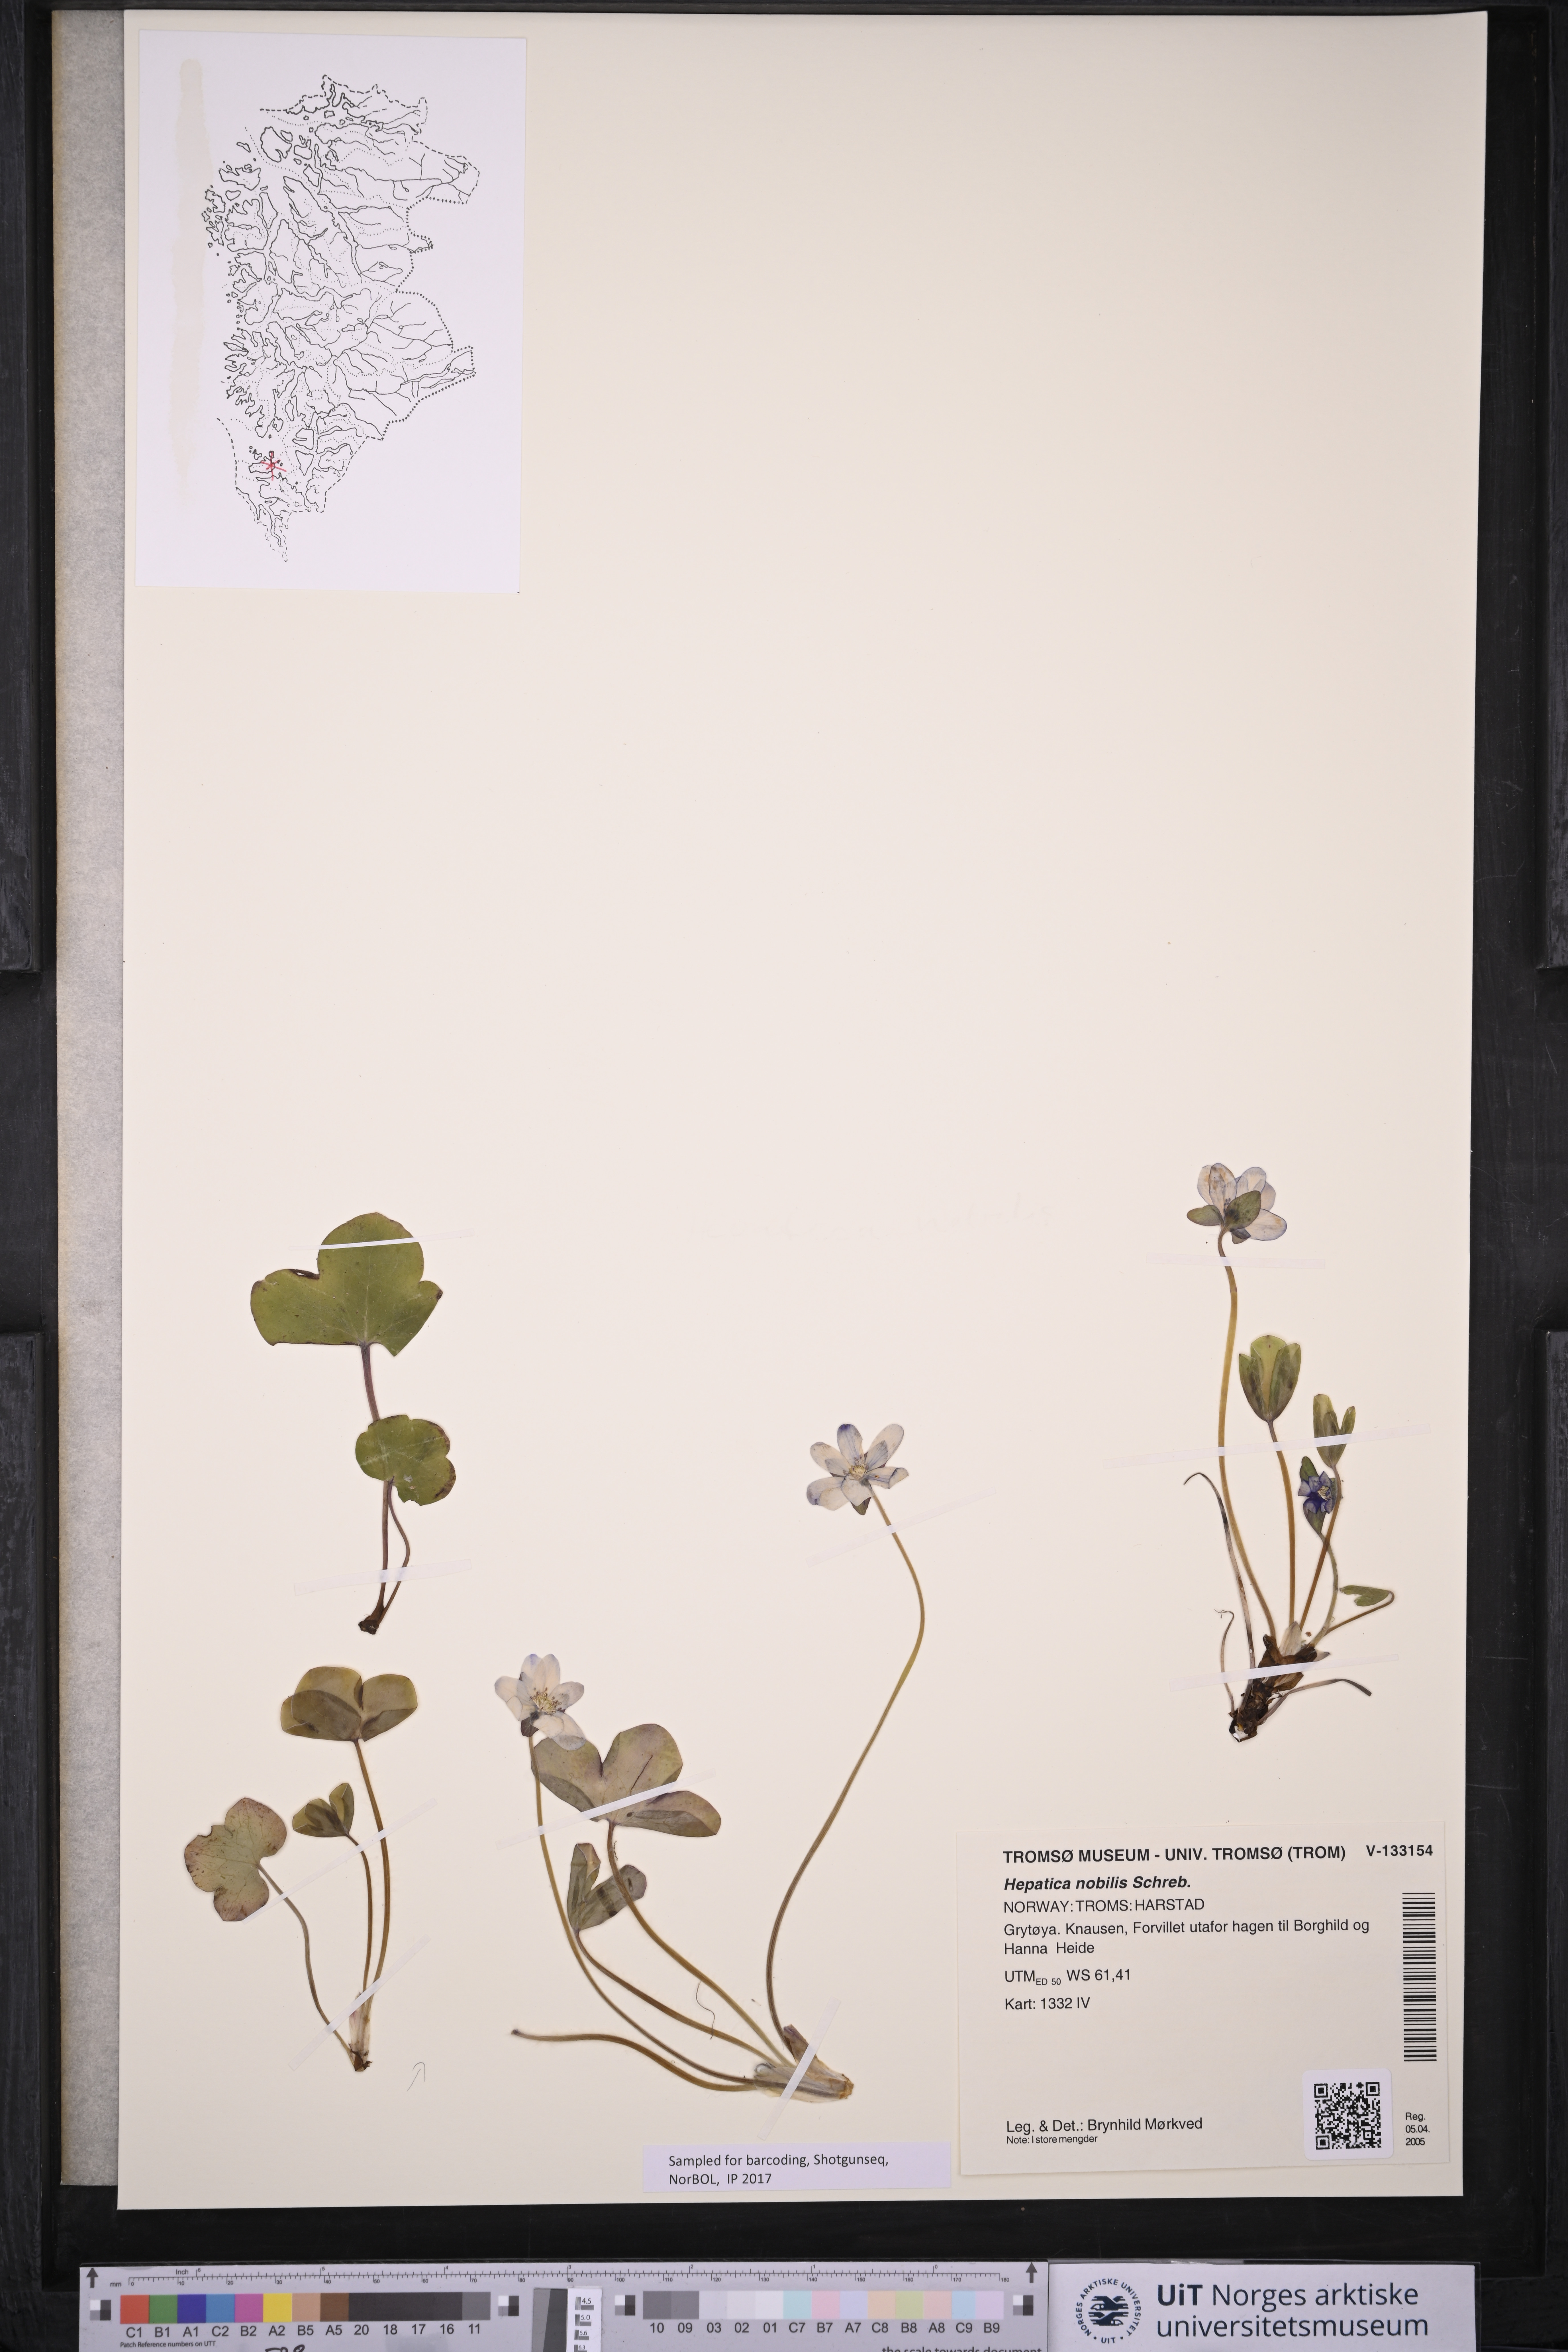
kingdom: Plantae
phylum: Tracheophyta
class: Magnoliopsida
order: Ranunculales
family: Ranunculaceae
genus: Hepatica
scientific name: Hepatica nobilis
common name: Liverleaf
